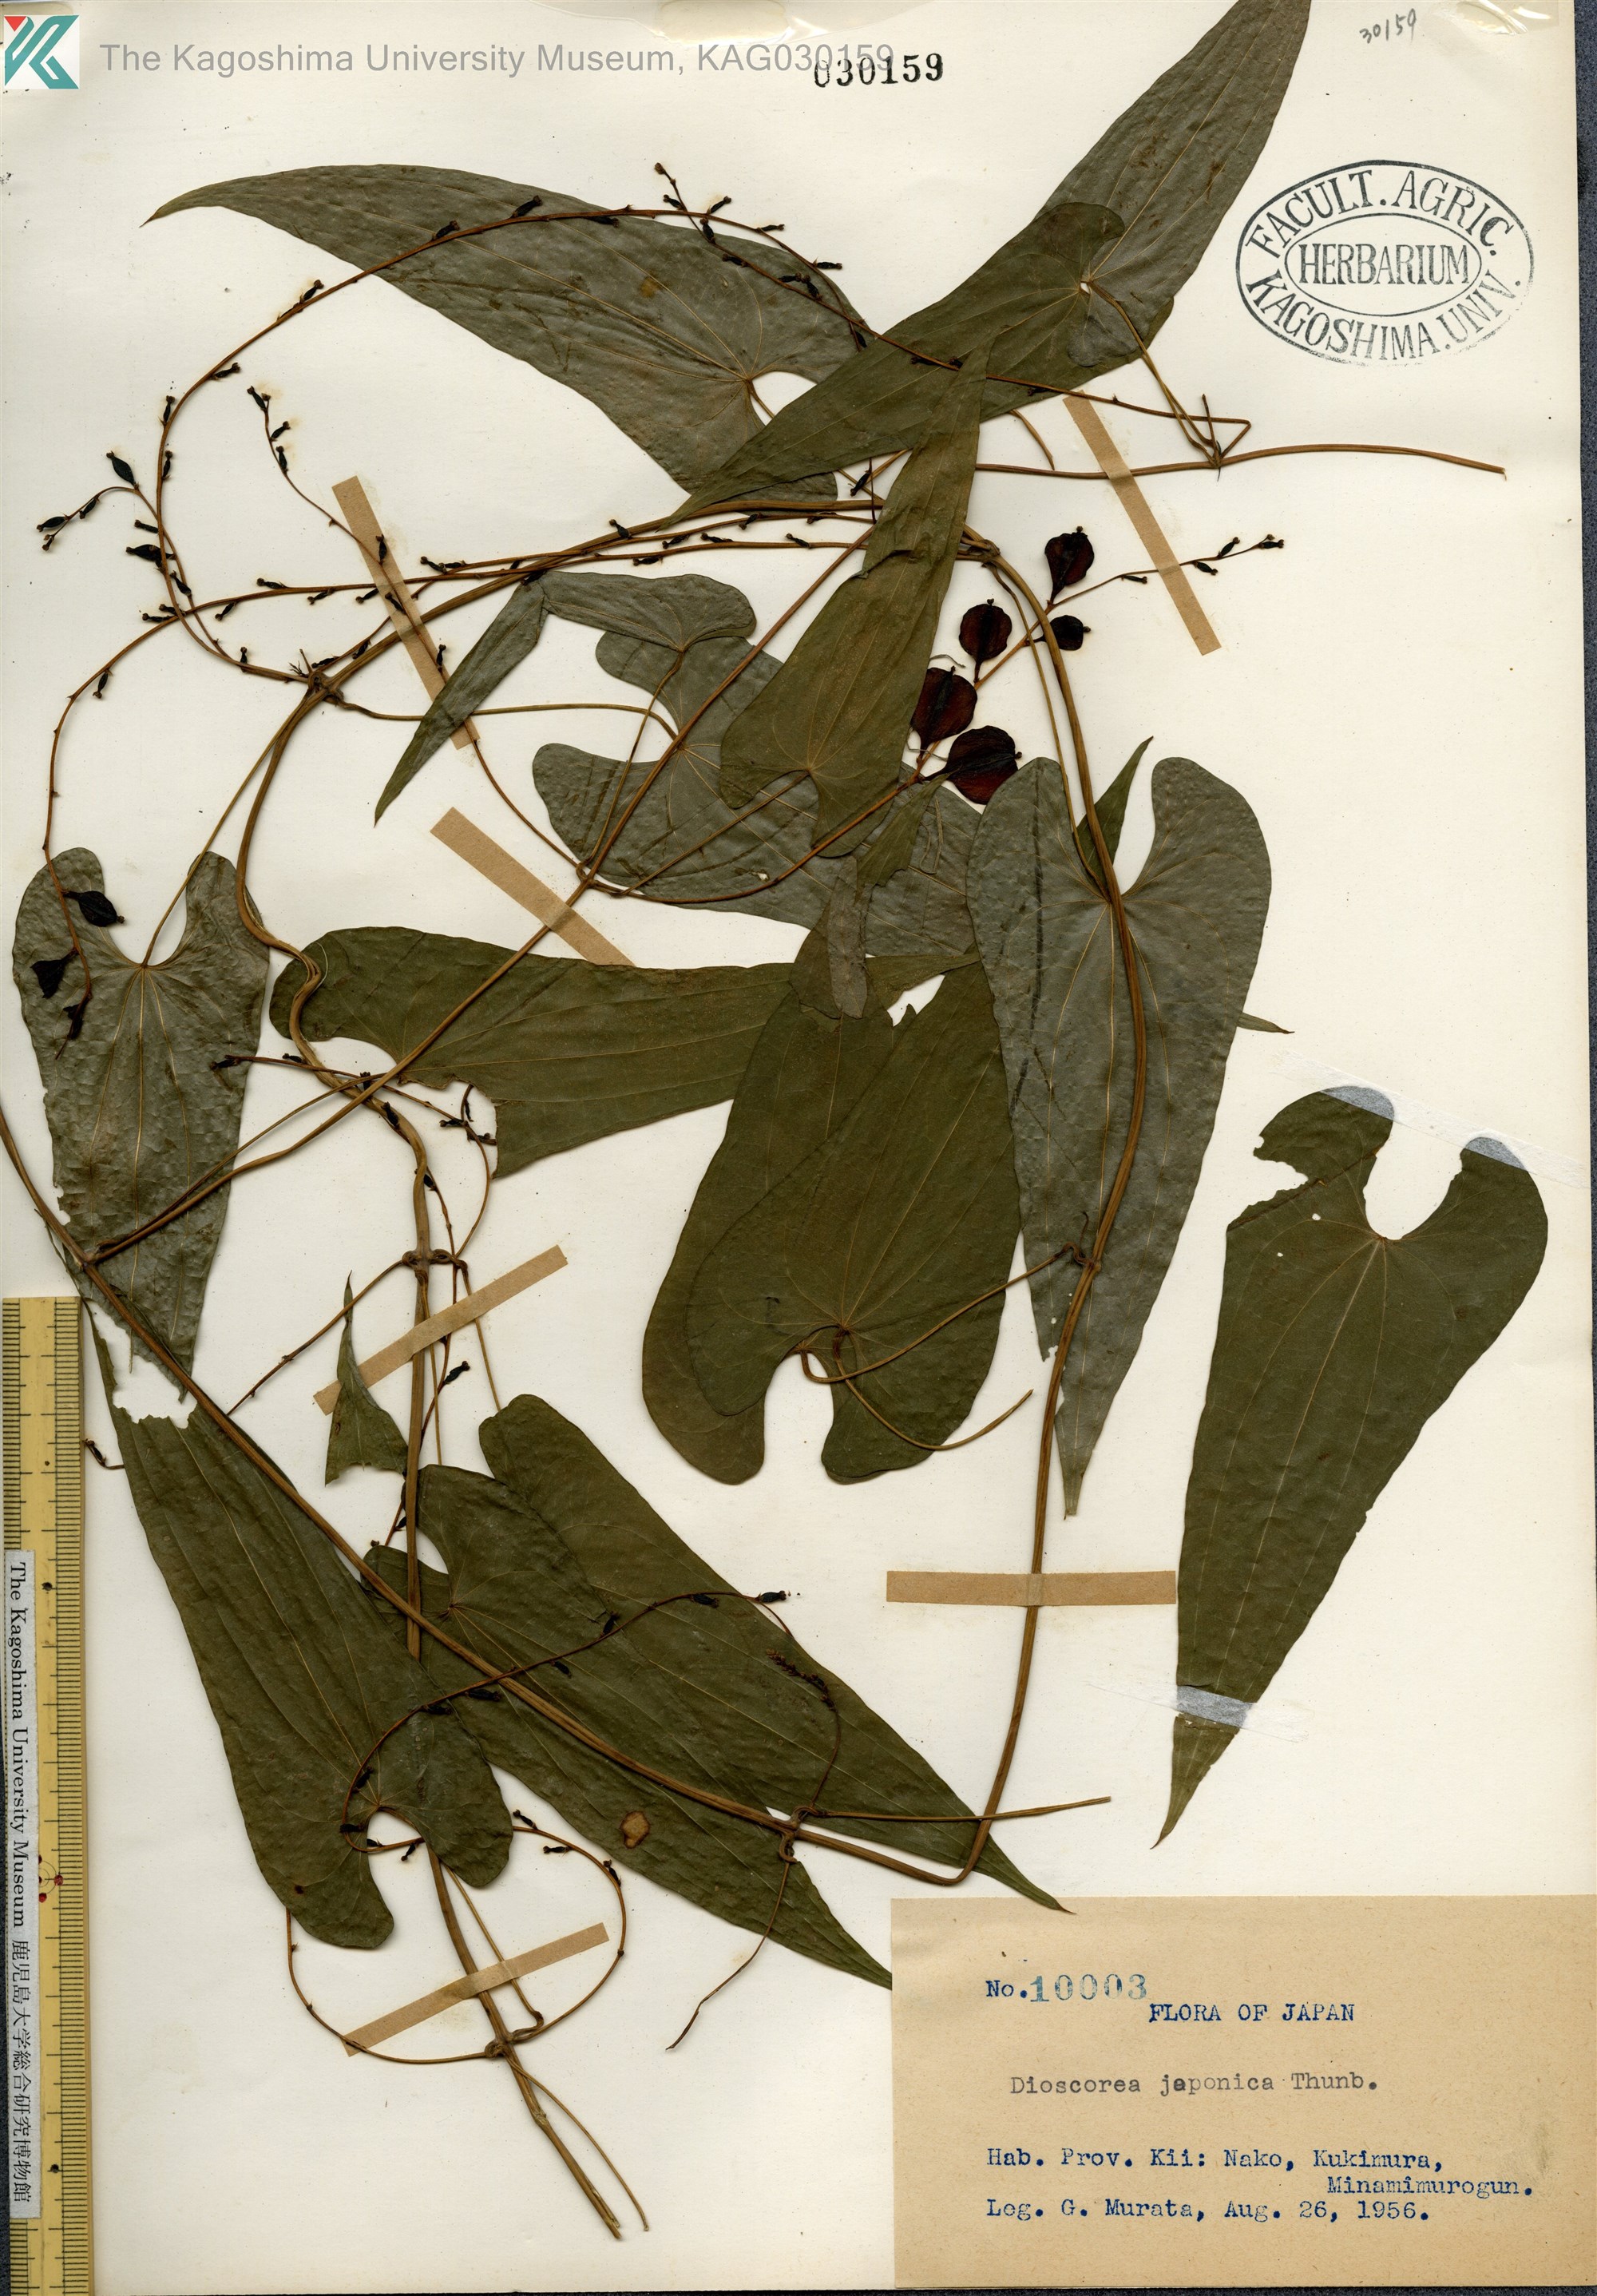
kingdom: Plantae
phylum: Tracheophyta
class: Liliopsida
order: Dioscoreales
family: Dioscoreaceae
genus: Dioscorea
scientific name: Dioscorea japonica
